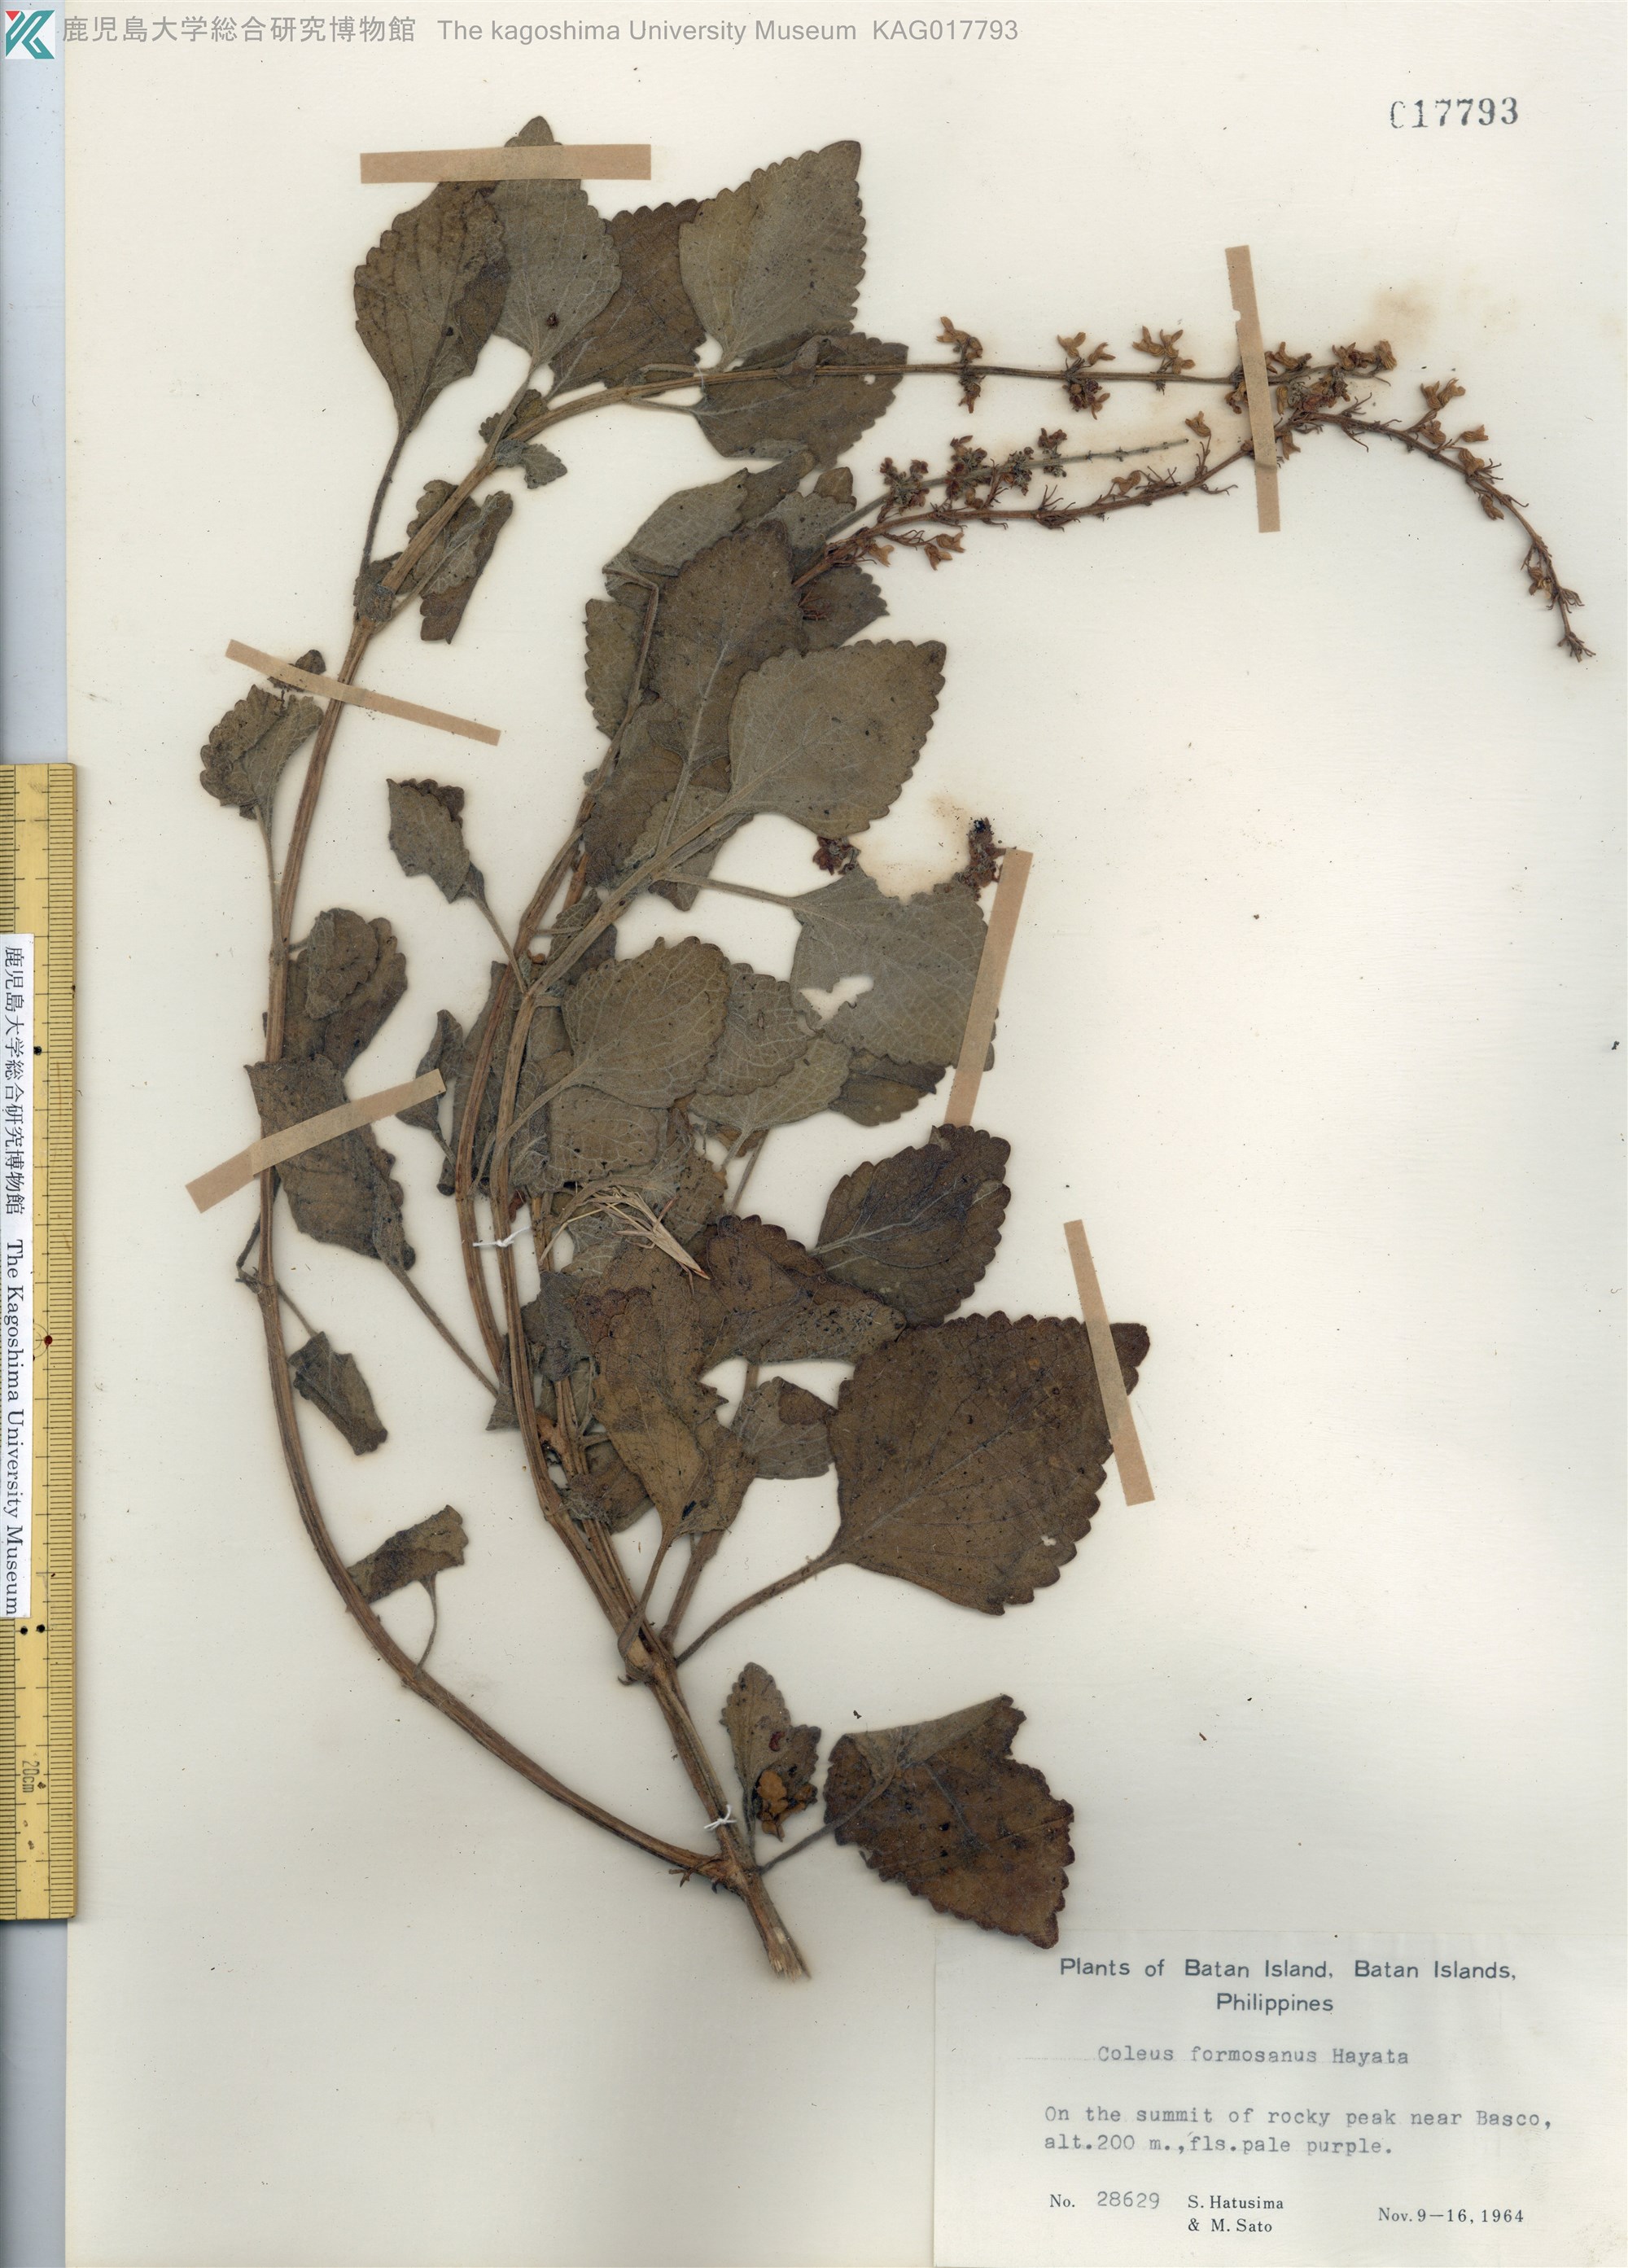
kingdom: Plantae
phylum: Tracheophyta
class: Magnoliopsida
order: Lamiales
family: Lamiaceae
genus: Coleus
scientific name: Coleus scutellarioides
